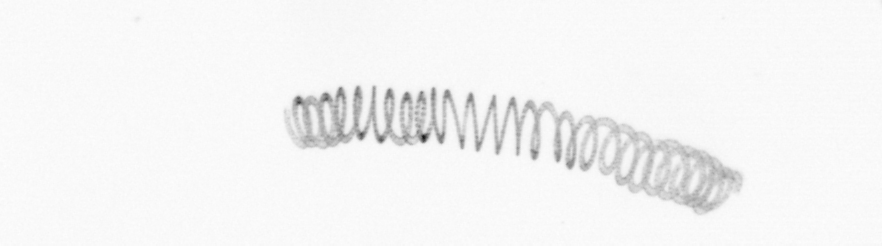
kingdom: Chromista
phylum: Ochrophyta
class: Bacillariophyceae
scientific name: Bacillariophyceae
